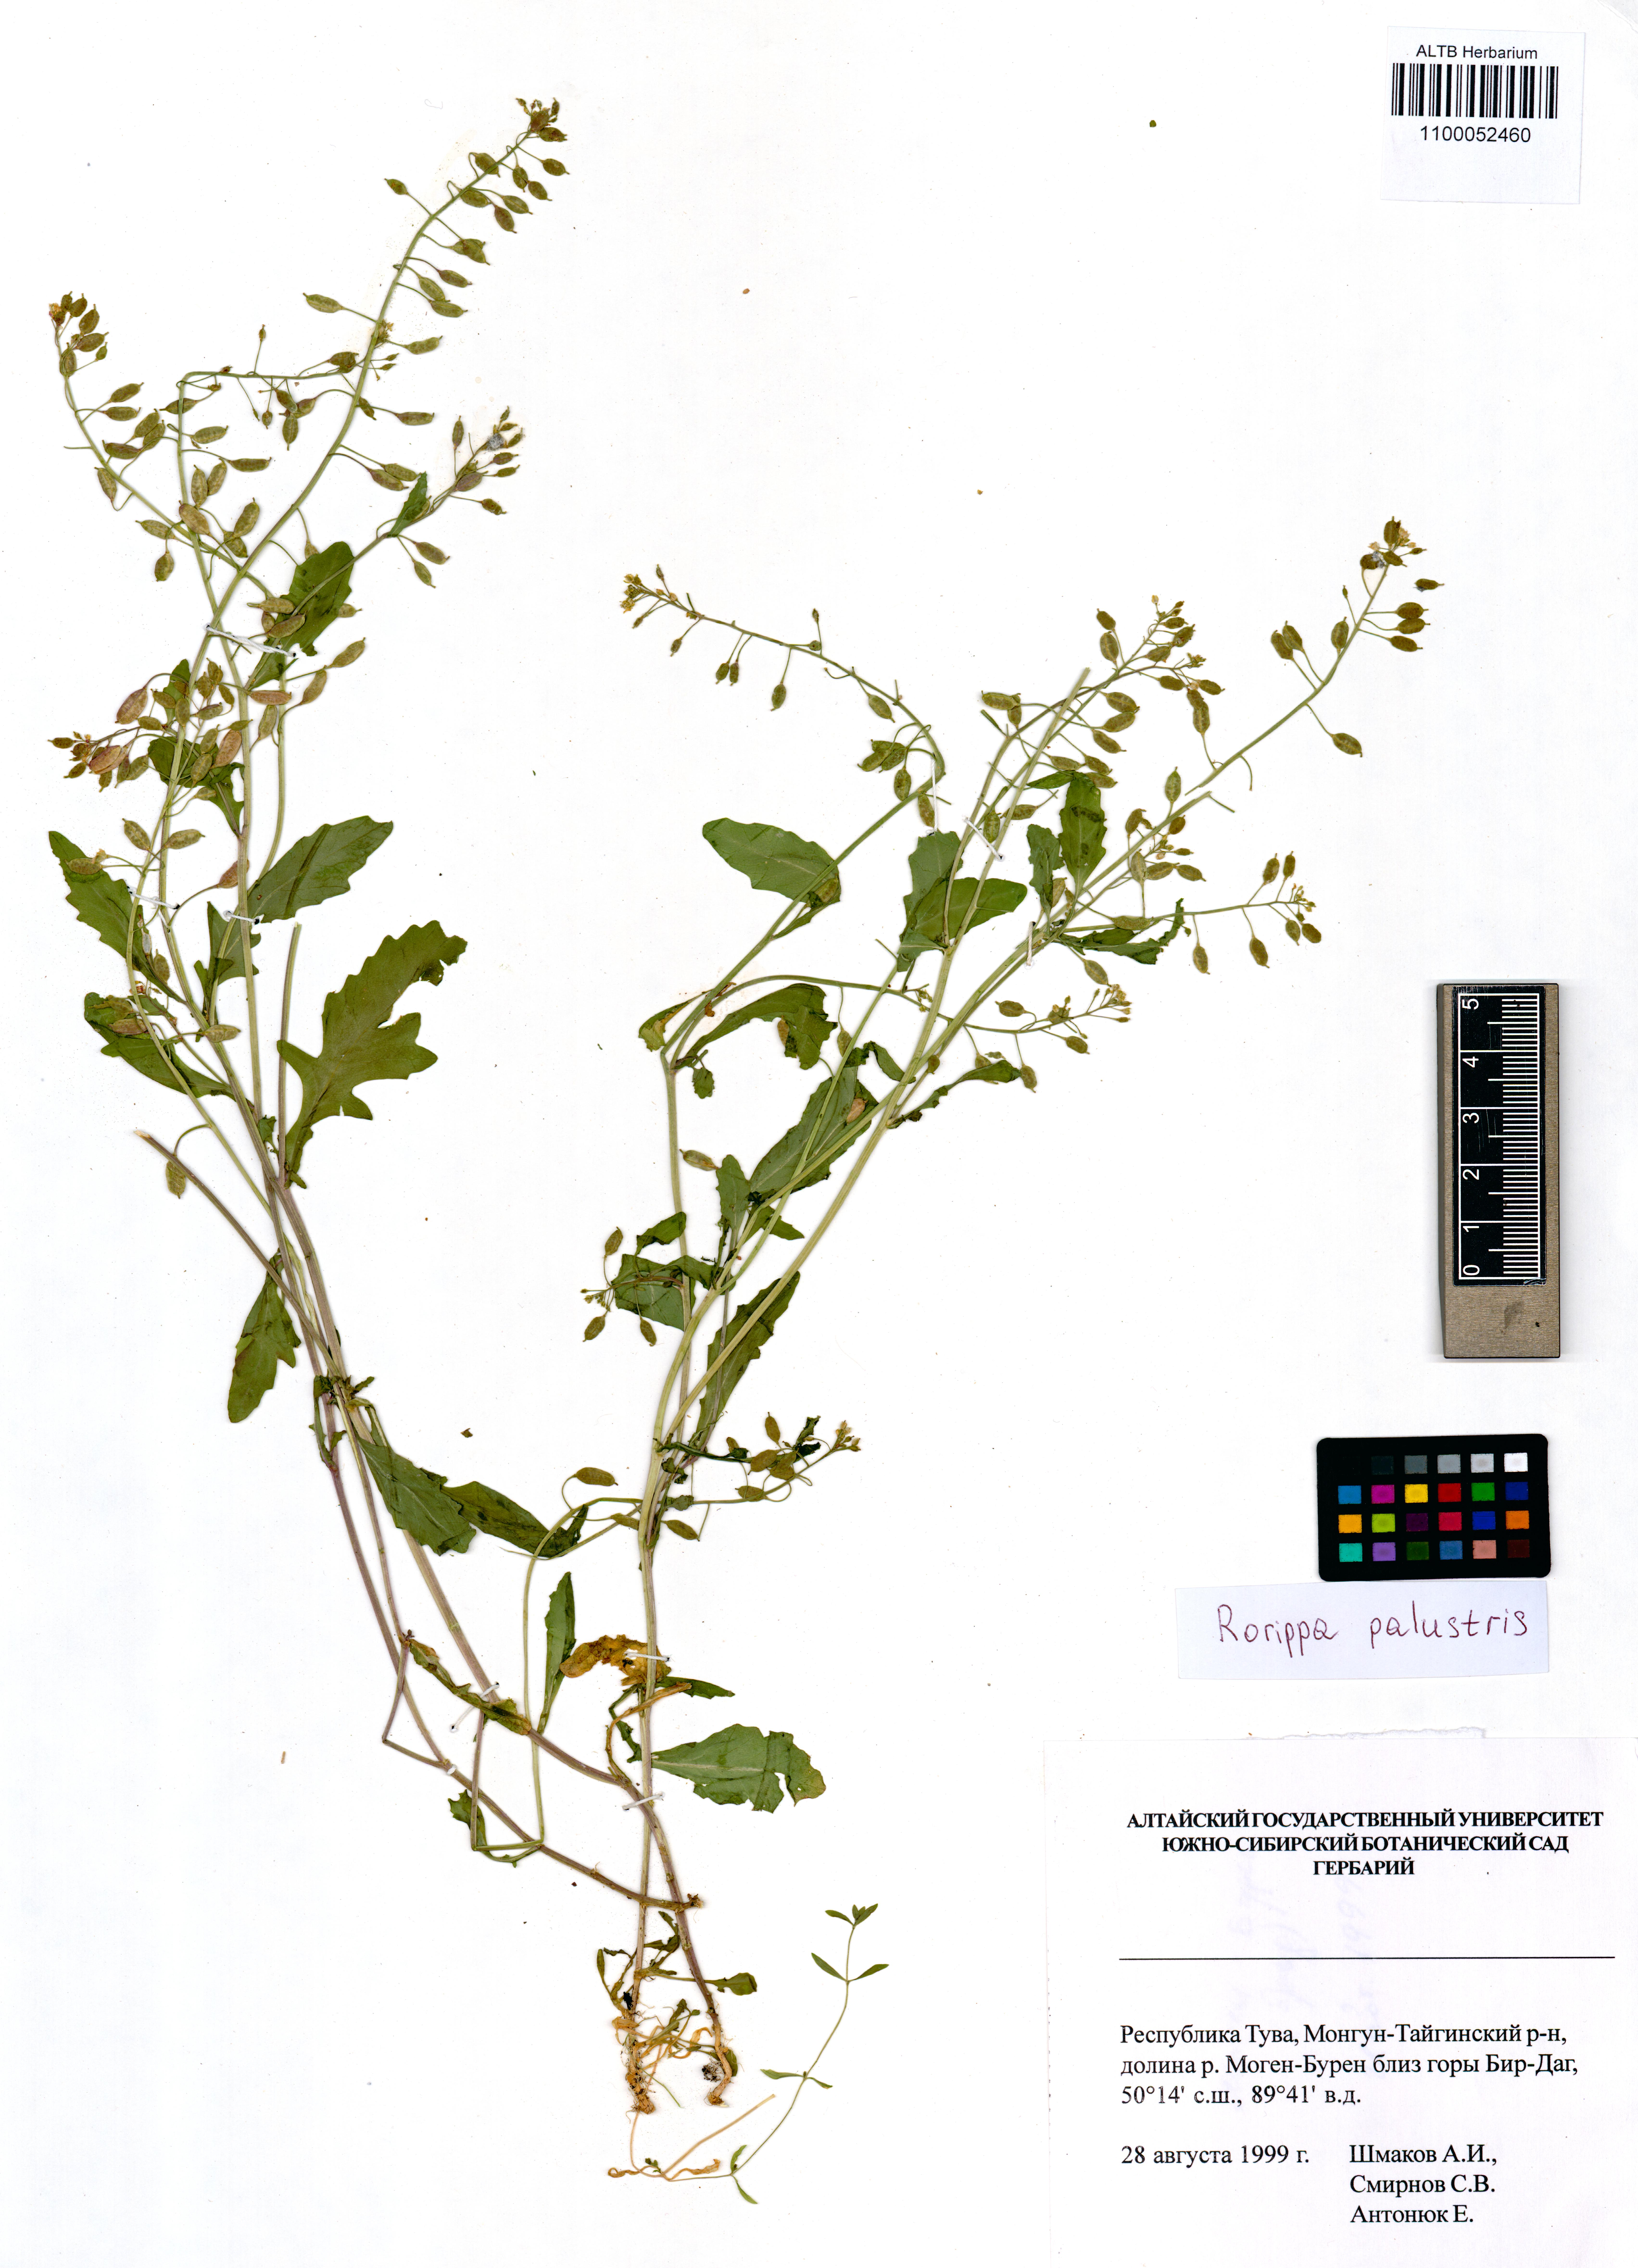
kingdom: Plantae
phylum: Tracheophyta
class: Magnoliopsida
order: Brassicales
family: Brassicaceae
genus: Rorippa
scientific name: Rorippa palustris
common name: Marsh yellow-cress
